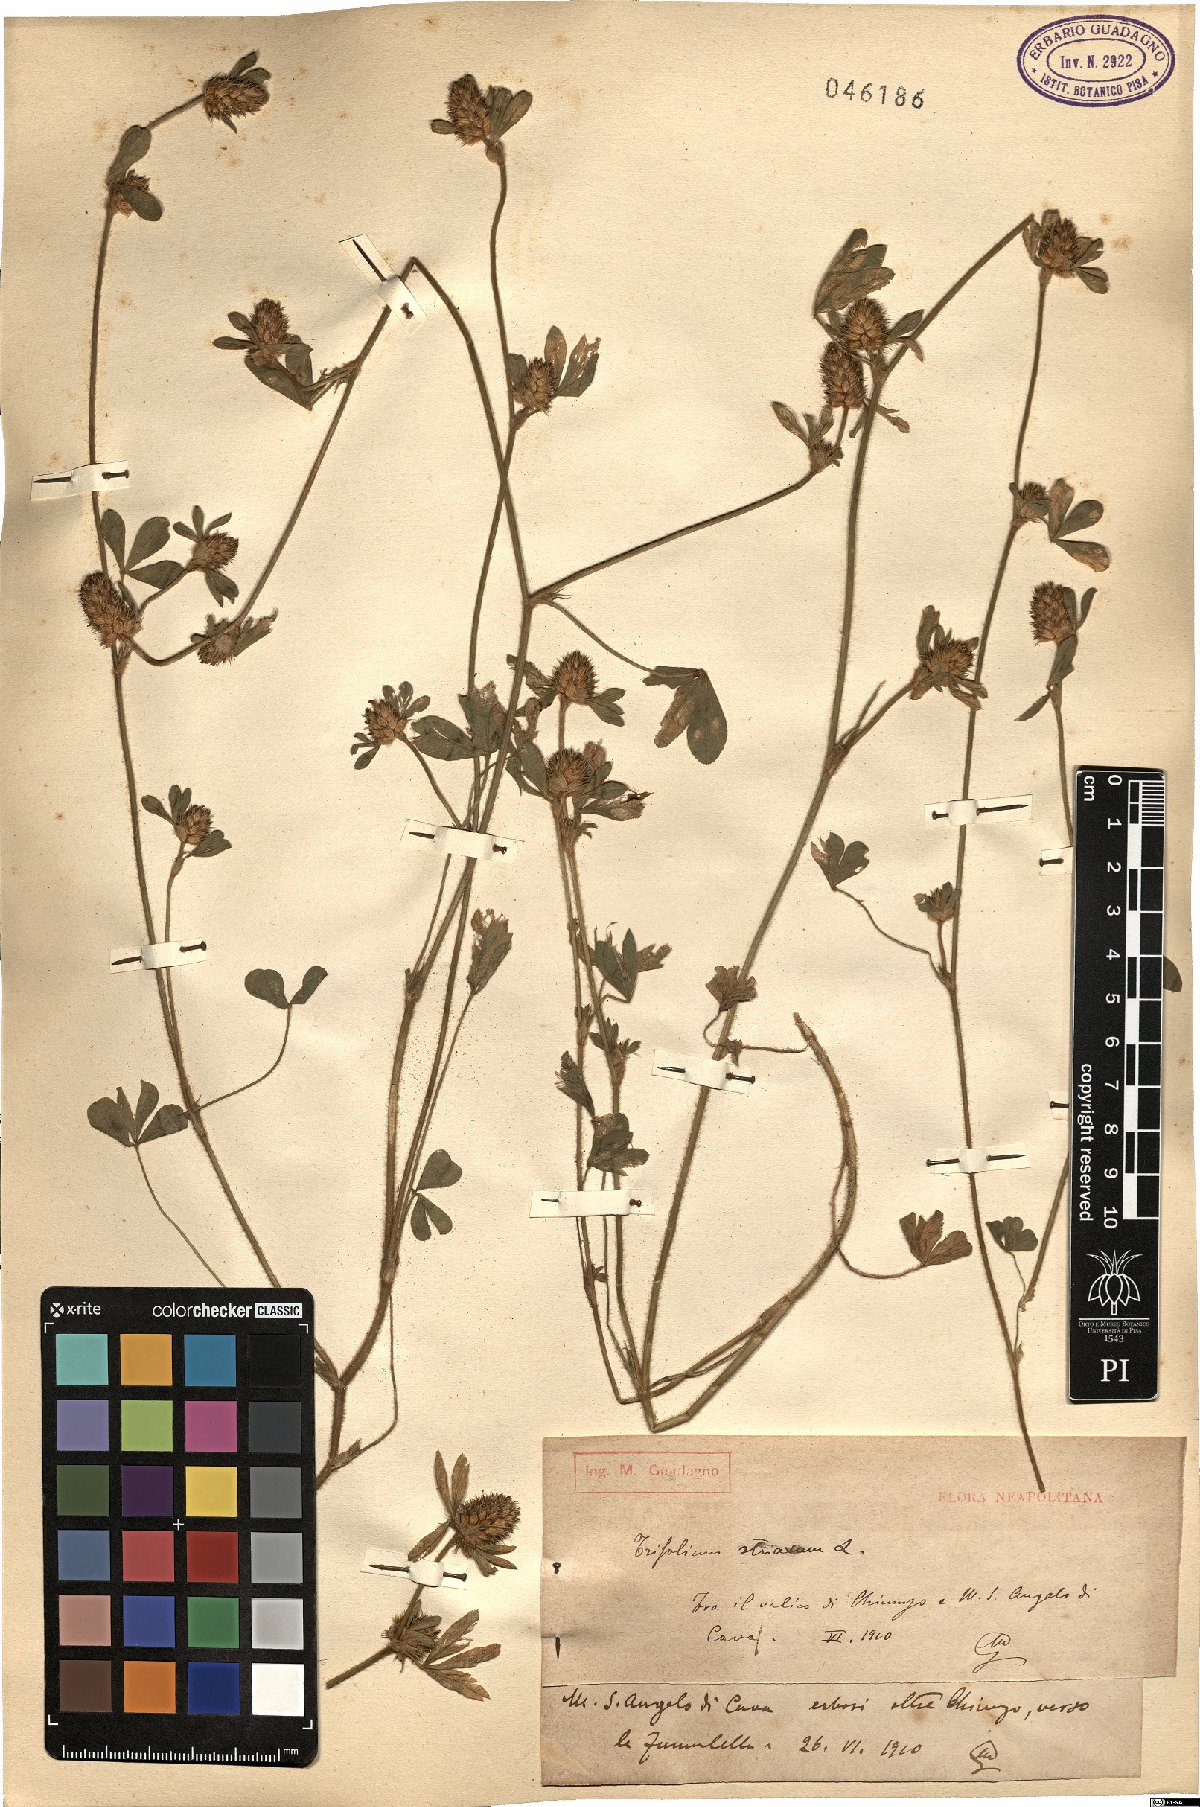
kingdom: Plantae
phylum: Tracheophyta
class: Magnoliopsida
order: Fabales
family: Fabaceae
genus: Trifolium
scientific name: Trifolium striatum
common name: Knotted clover
